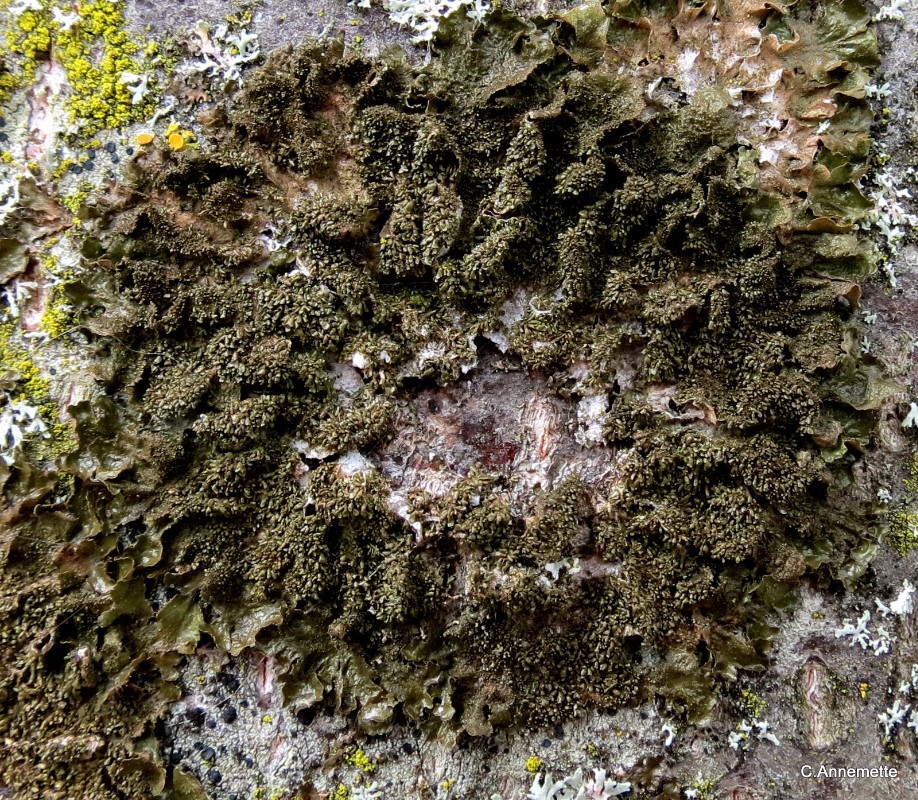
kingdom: Fungi
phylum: Ascomycota
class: Lecanoromycetes
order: Lecanorales
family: Parmeliaceae
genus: Melanohalea
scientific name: Melanohalea exasperatula
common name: kølle-skållav
